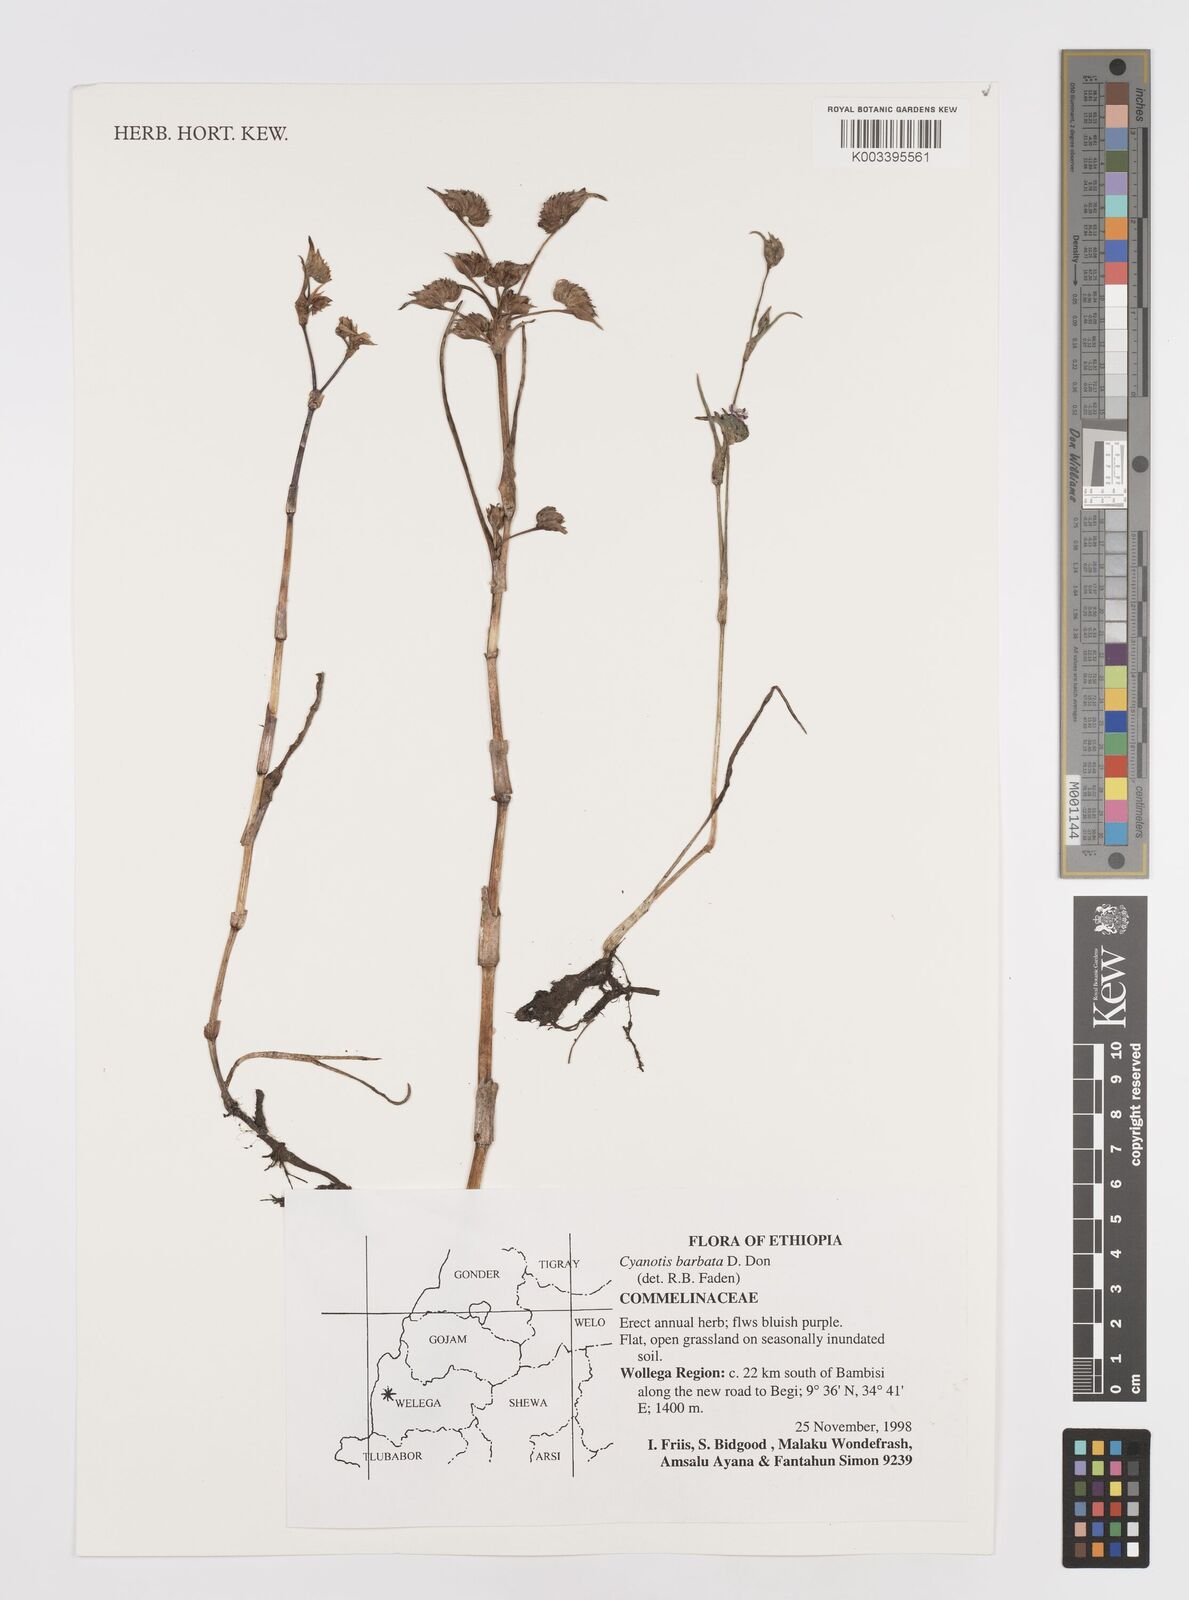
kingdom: Plantae
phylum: Tracheophyta
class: Liliopsida
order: Commelinales
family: Commelinaceae
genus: Cyanotis
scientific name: Cyanotis vaga
